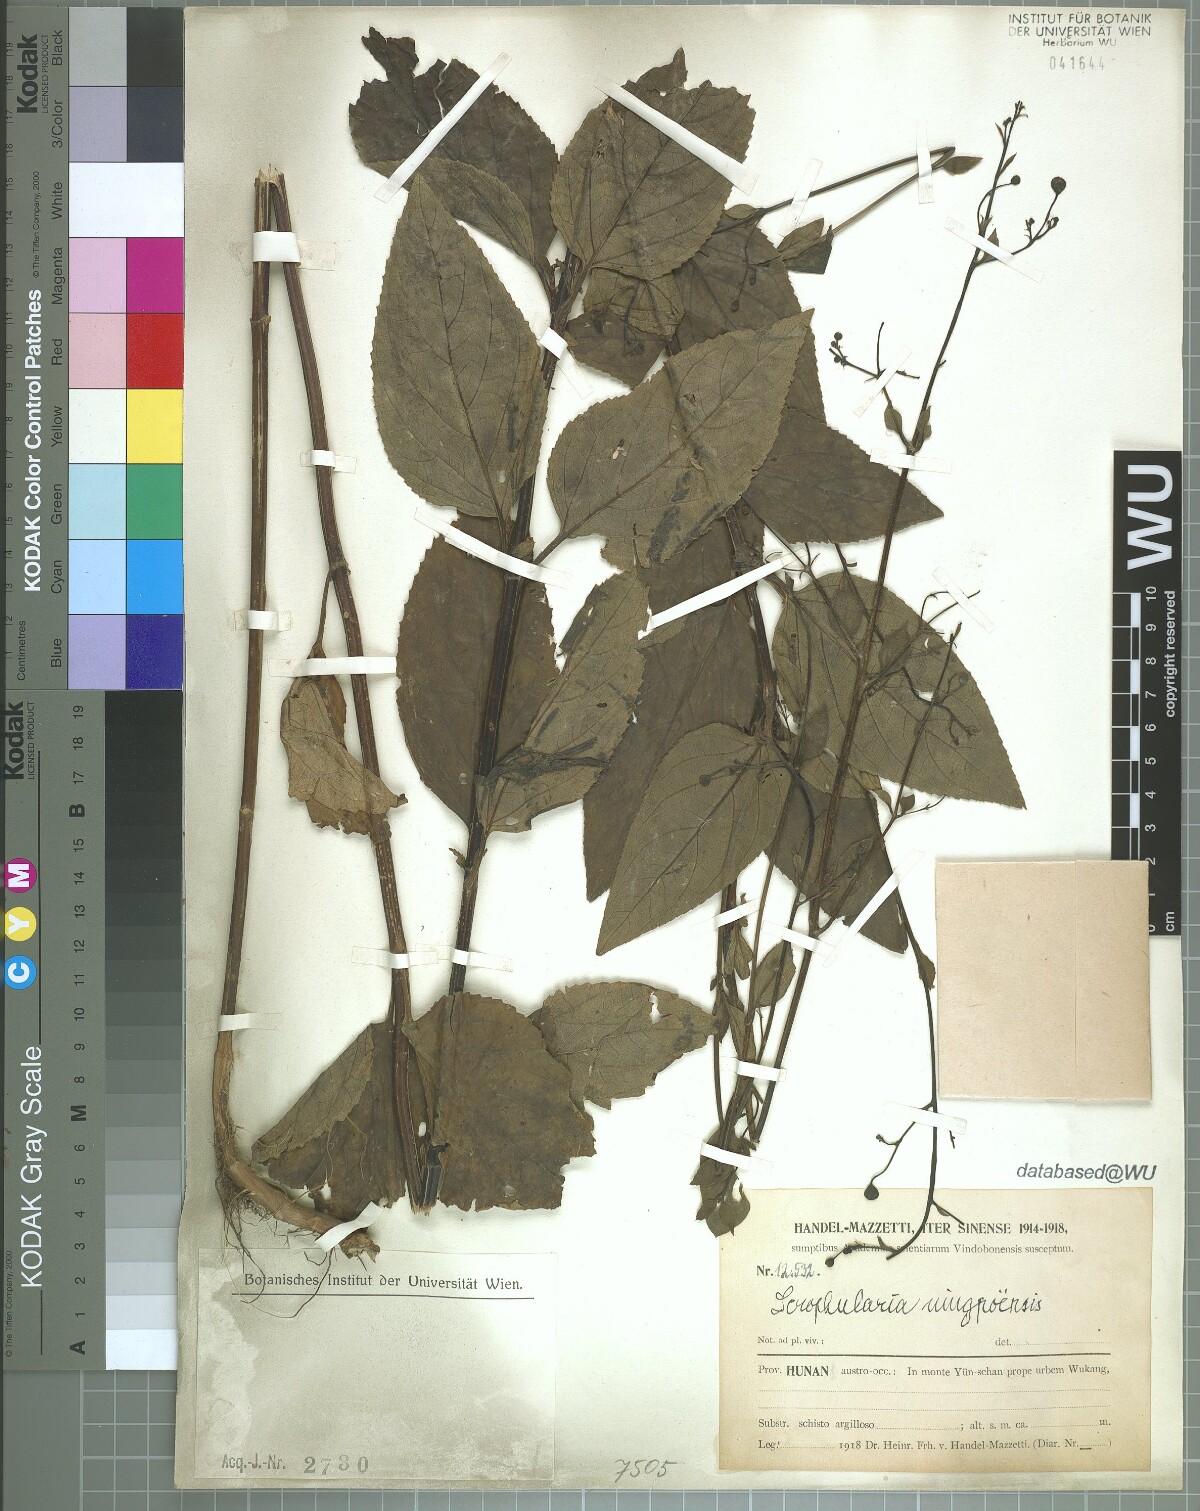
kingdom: Plantae
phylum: Tracheophyta
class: Magnoliopsida
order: Lamiales
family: Scrophulariaceae
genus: Scrophularia
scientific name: Scrophularia ningpoensis
